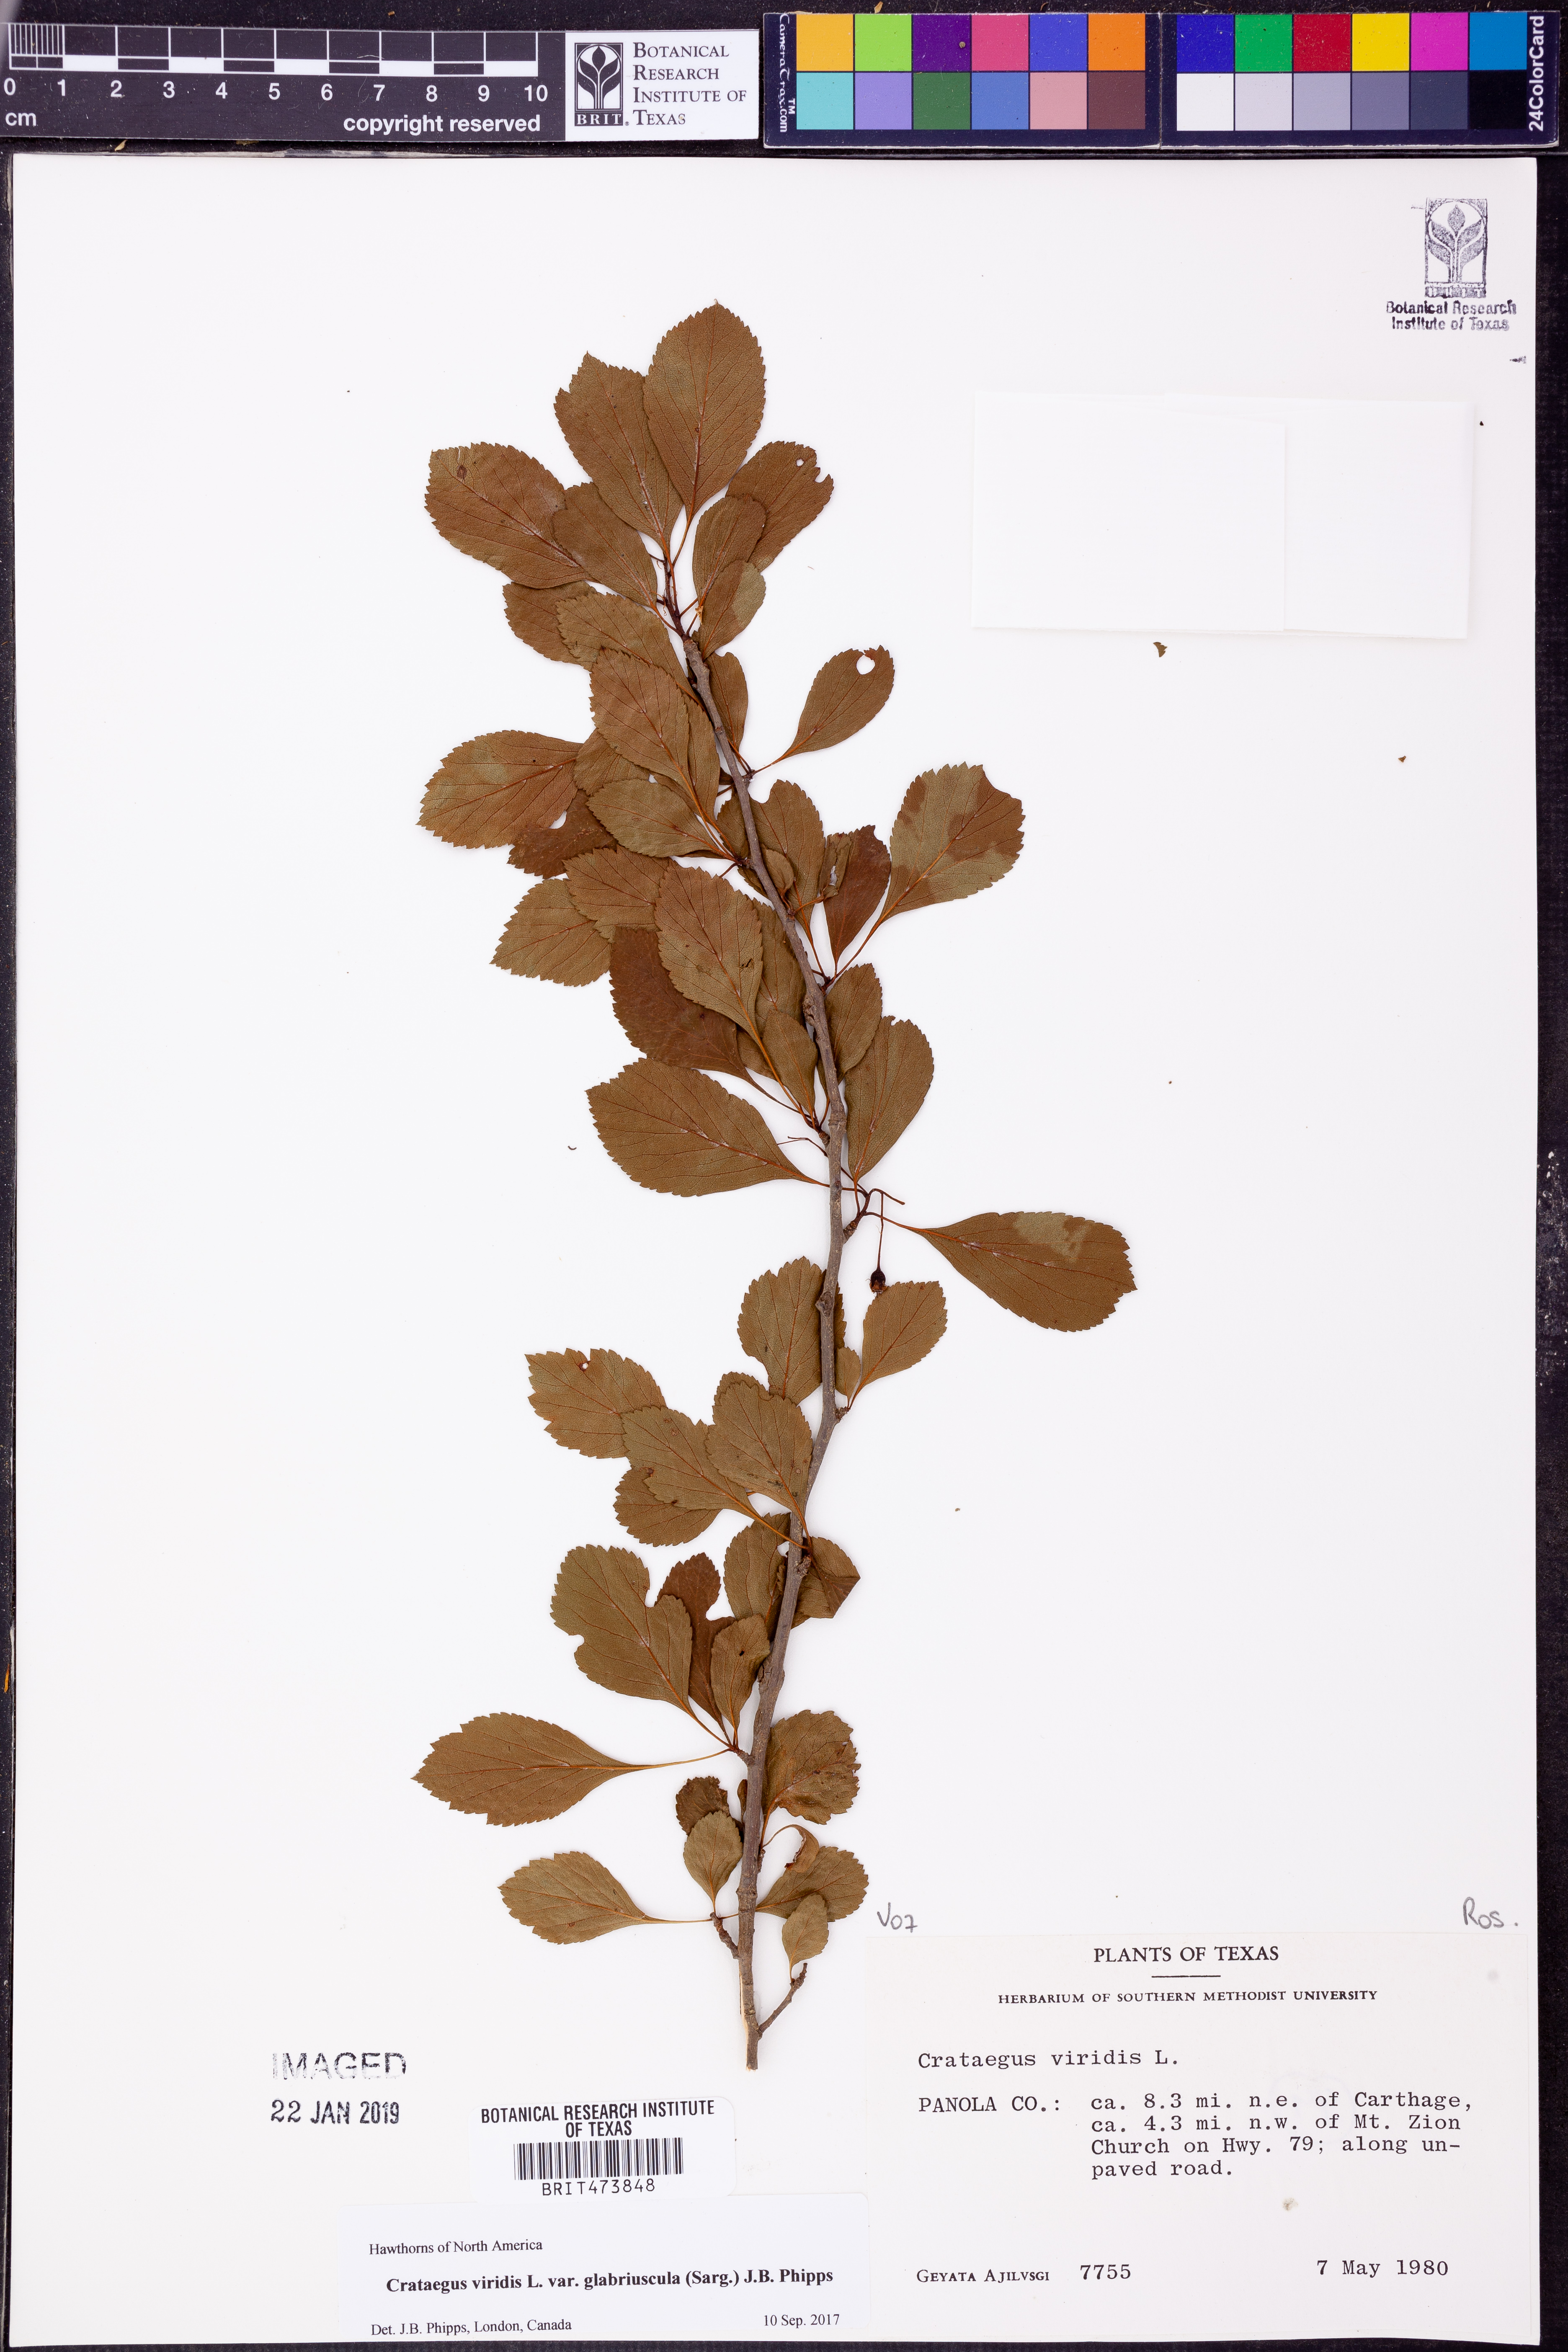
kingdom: Plantae
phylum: Tracheophyta
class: Magnoliopsida
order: Rosales
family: Rosaceae
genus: Crataegus
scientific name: Crataegus viridis
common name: Southernthorn
